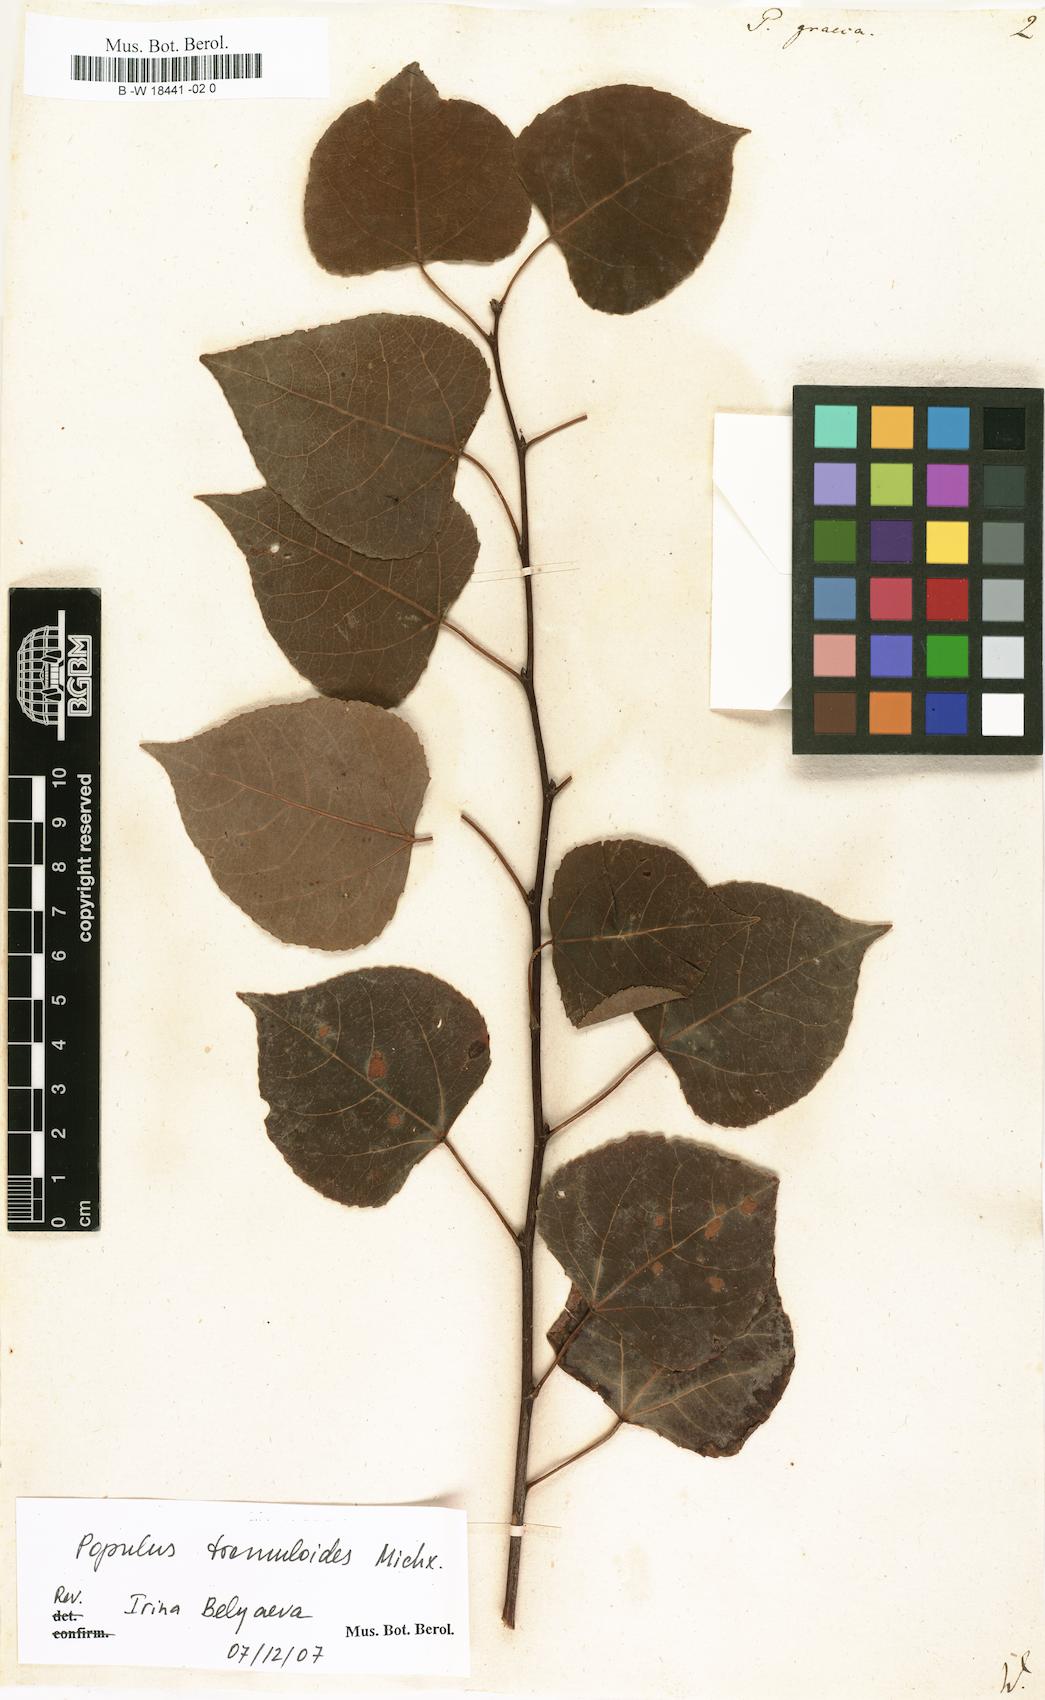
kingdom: Plantae
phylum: Tracheophyta
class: Magnoliopsida
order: Malpighiales
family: Salicaceae
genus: Populus
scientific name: Populus tremuloides
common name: Quaking aspen
